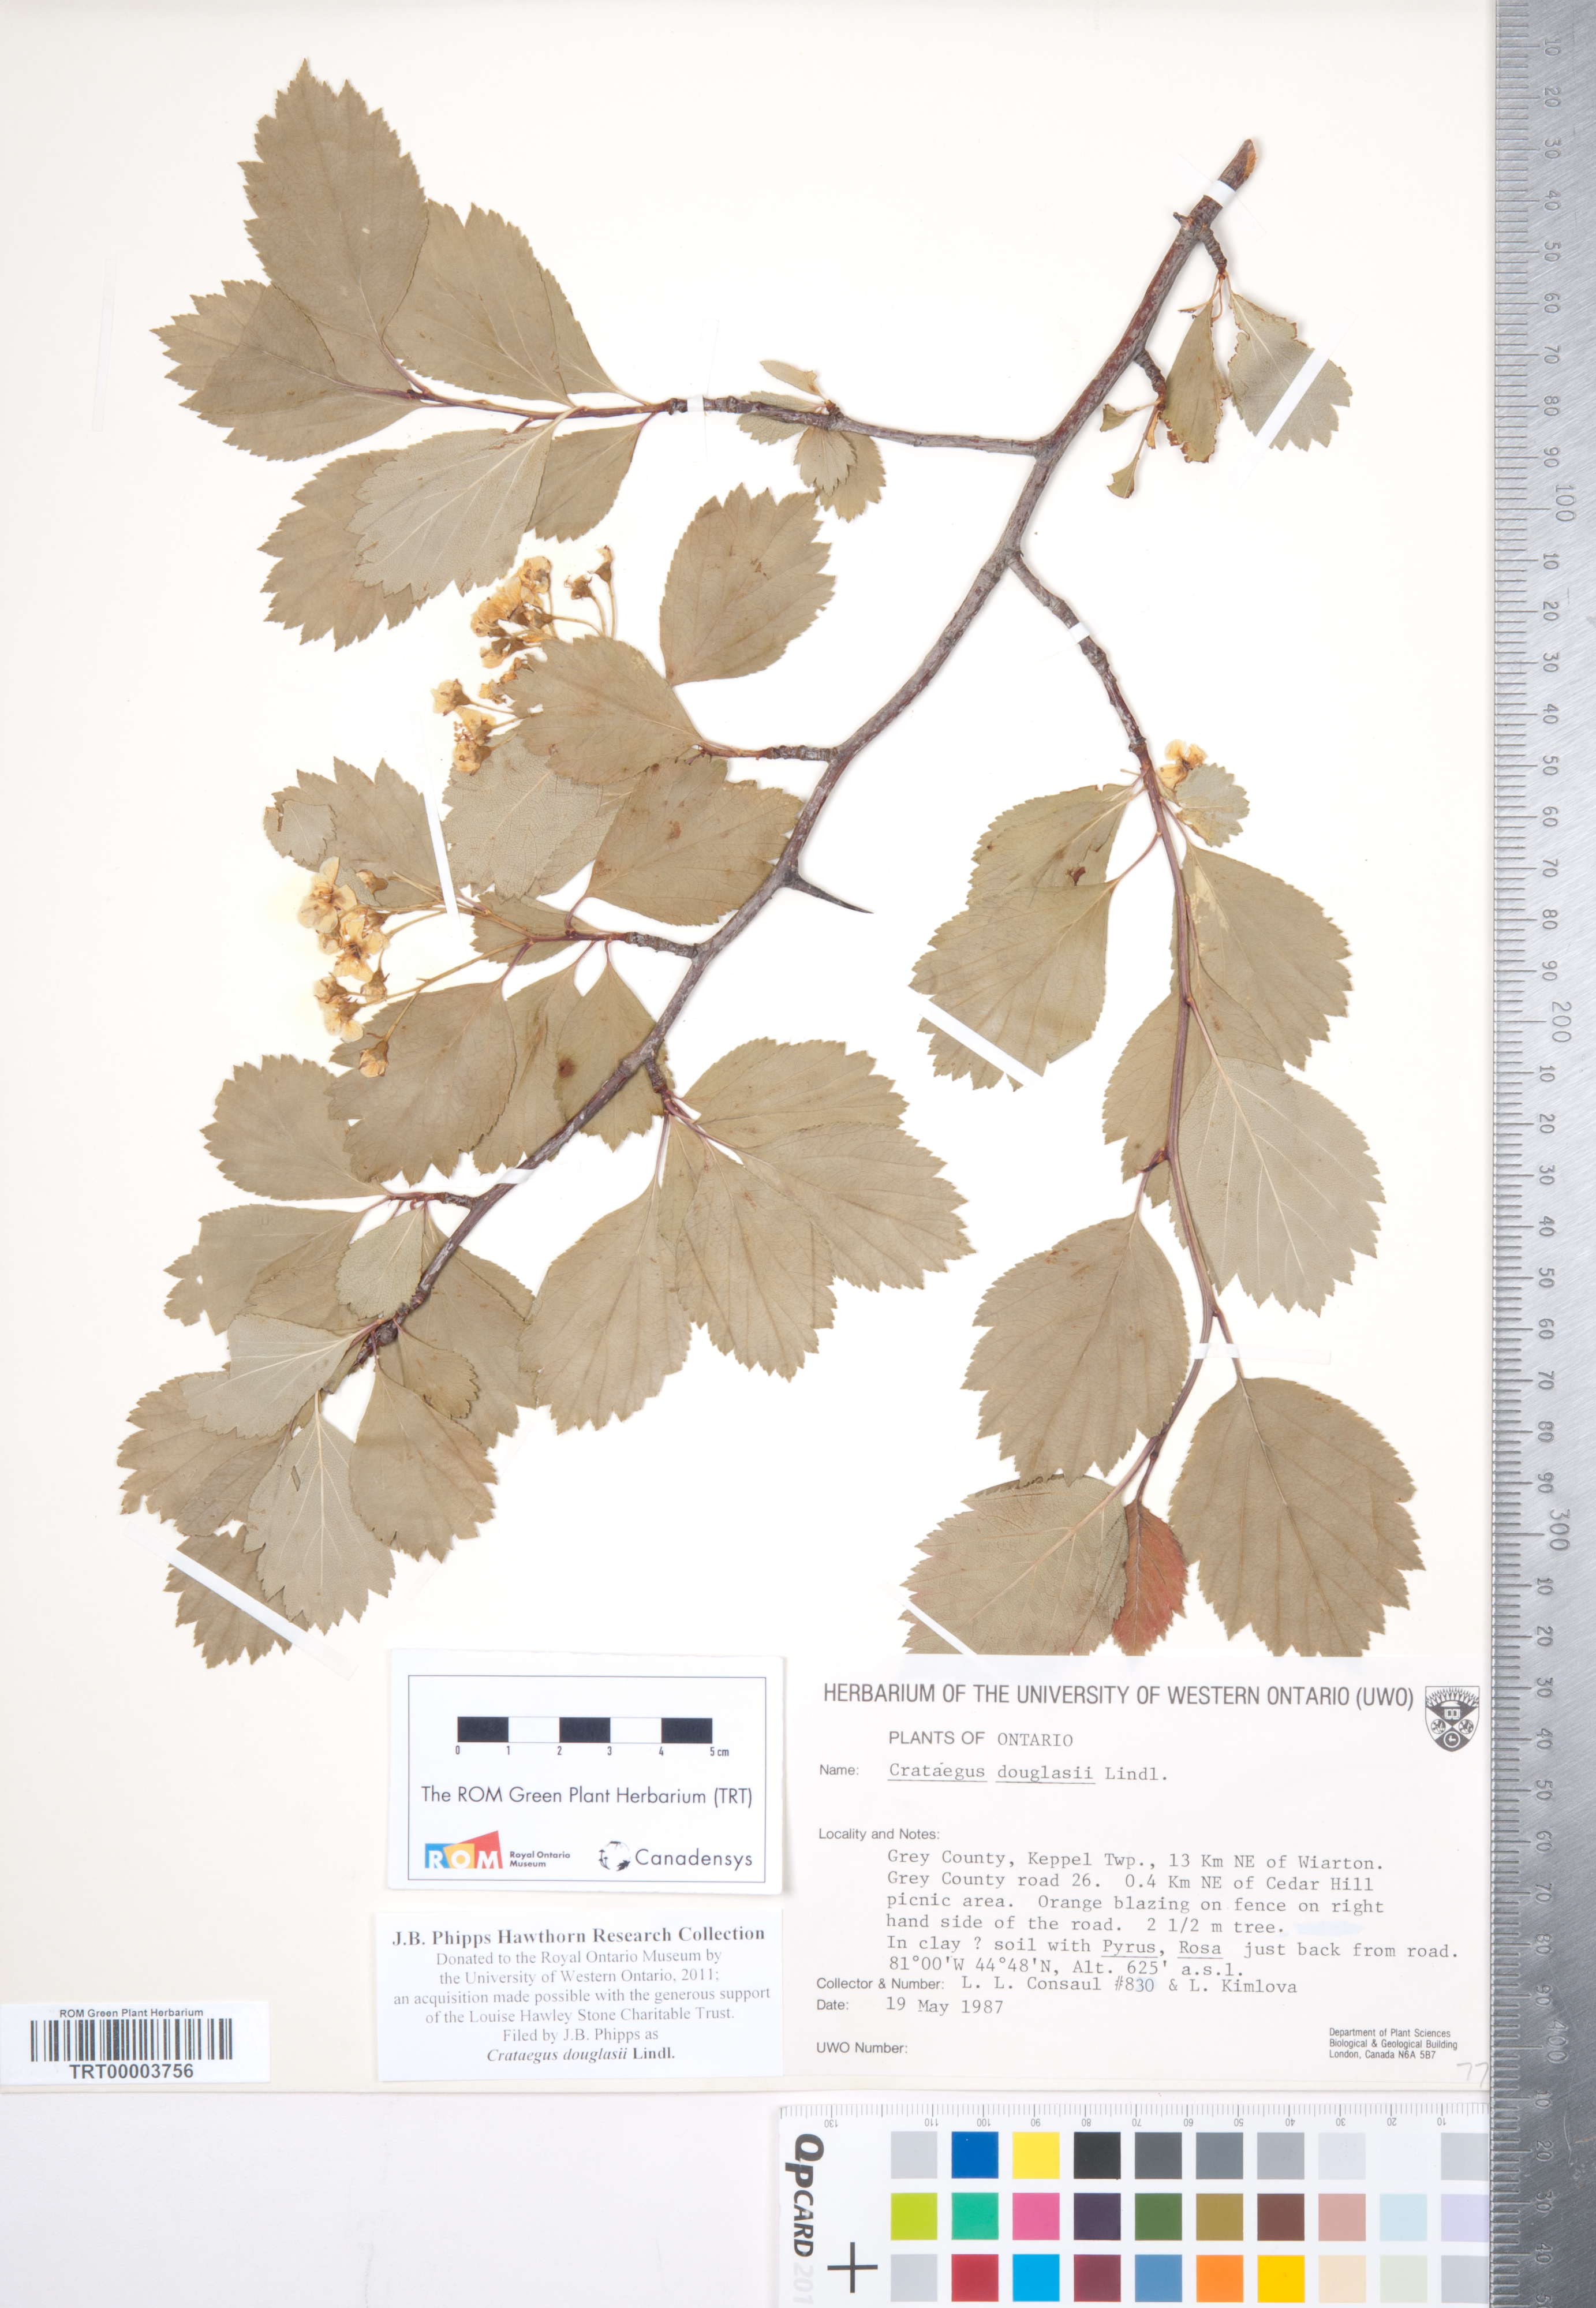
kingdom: Plantae
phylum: Tracheophyta
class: Magnoliopsida
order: Rosales
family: Rosaceae
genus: Crataegus
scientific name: Crataegus douglasii
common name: Black hawthorn
